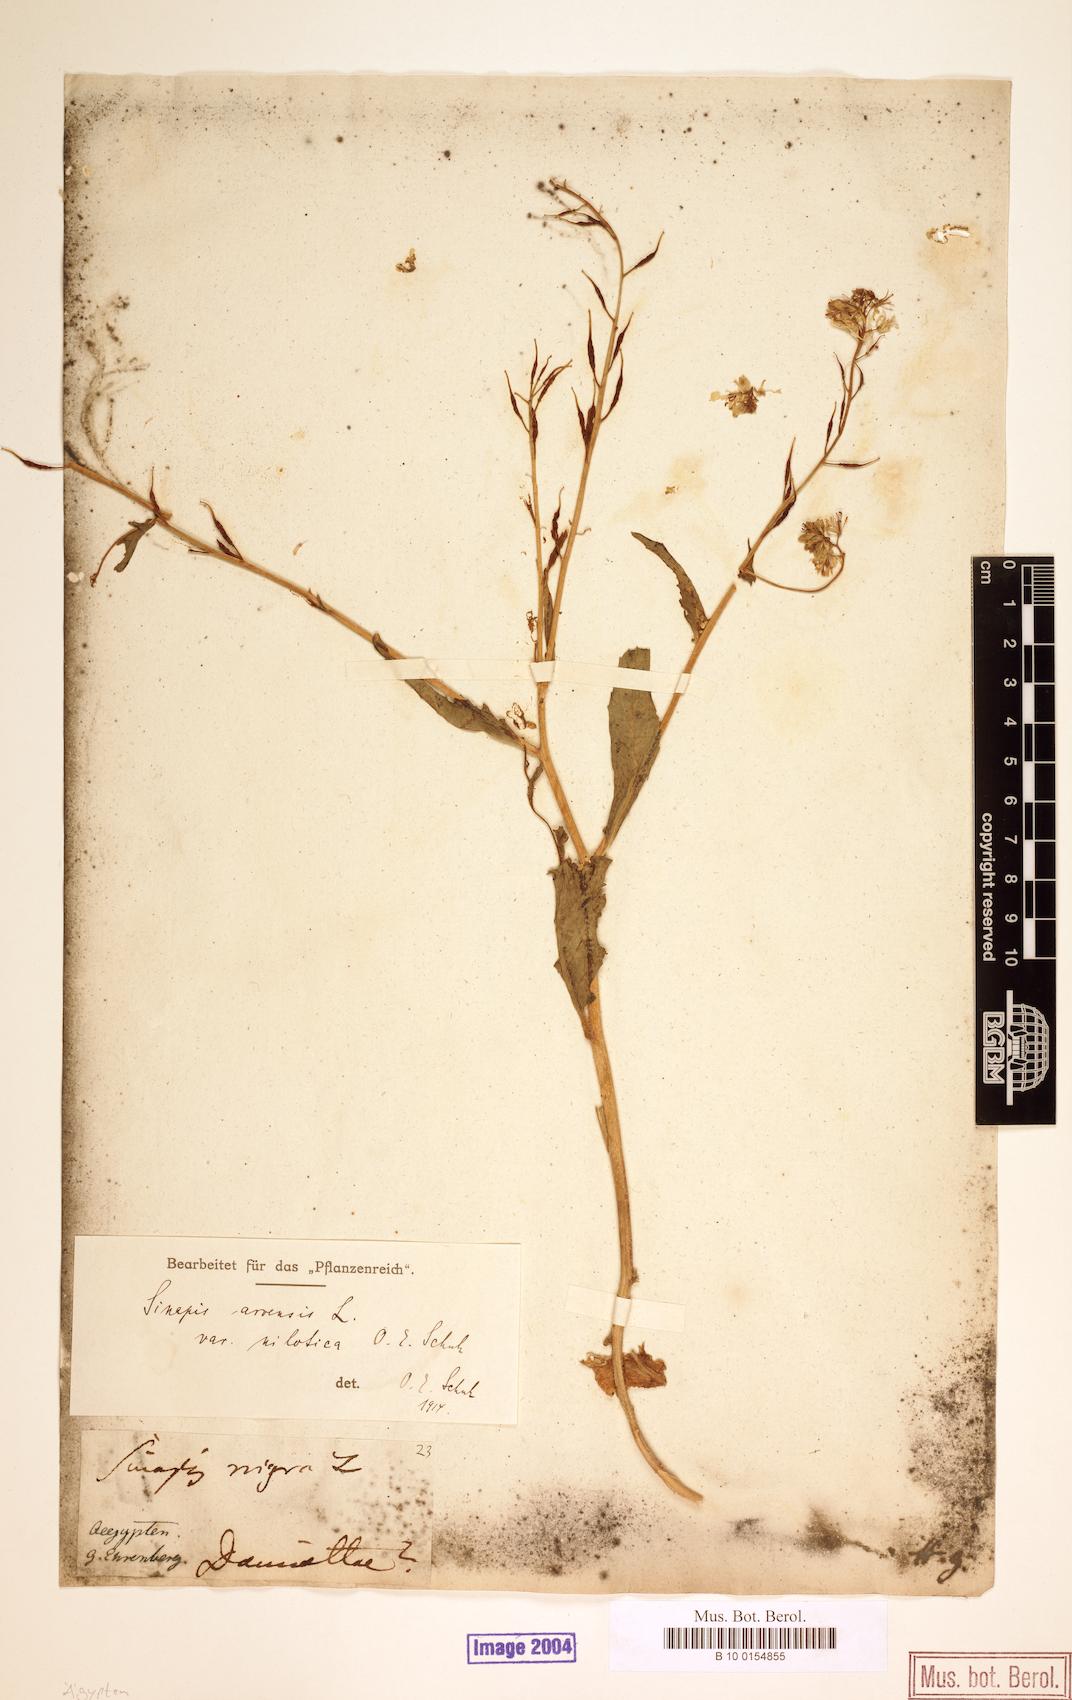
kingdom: Plantae
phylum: Tracheophyta
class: Magnoliopsida
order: Brassicales
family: Brassicaceae
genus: Sinapis
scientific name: Sinapis arvensis
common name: Charlock
